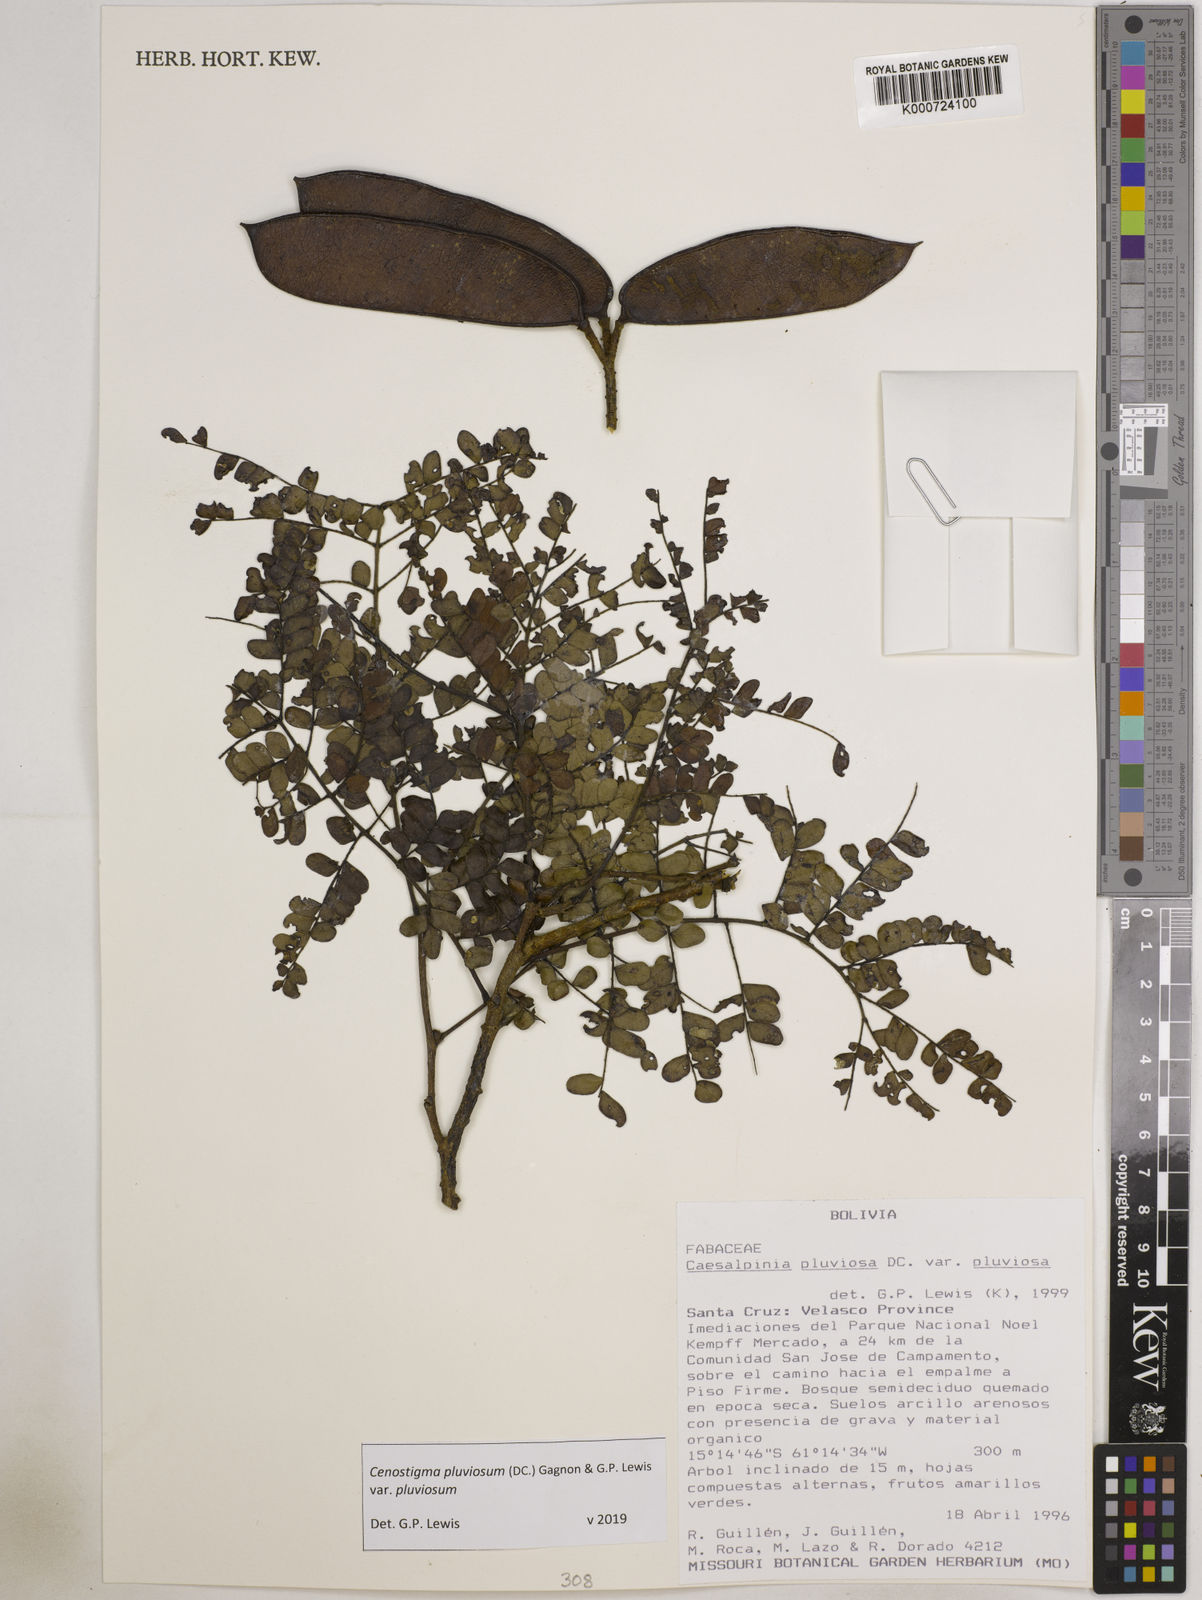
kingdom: Plantae
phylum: Tracheophyta
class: Magnoliopsida
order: Fabales
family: Fabaceae
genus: Cenostigma
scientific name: Cenostigma pluviosum
